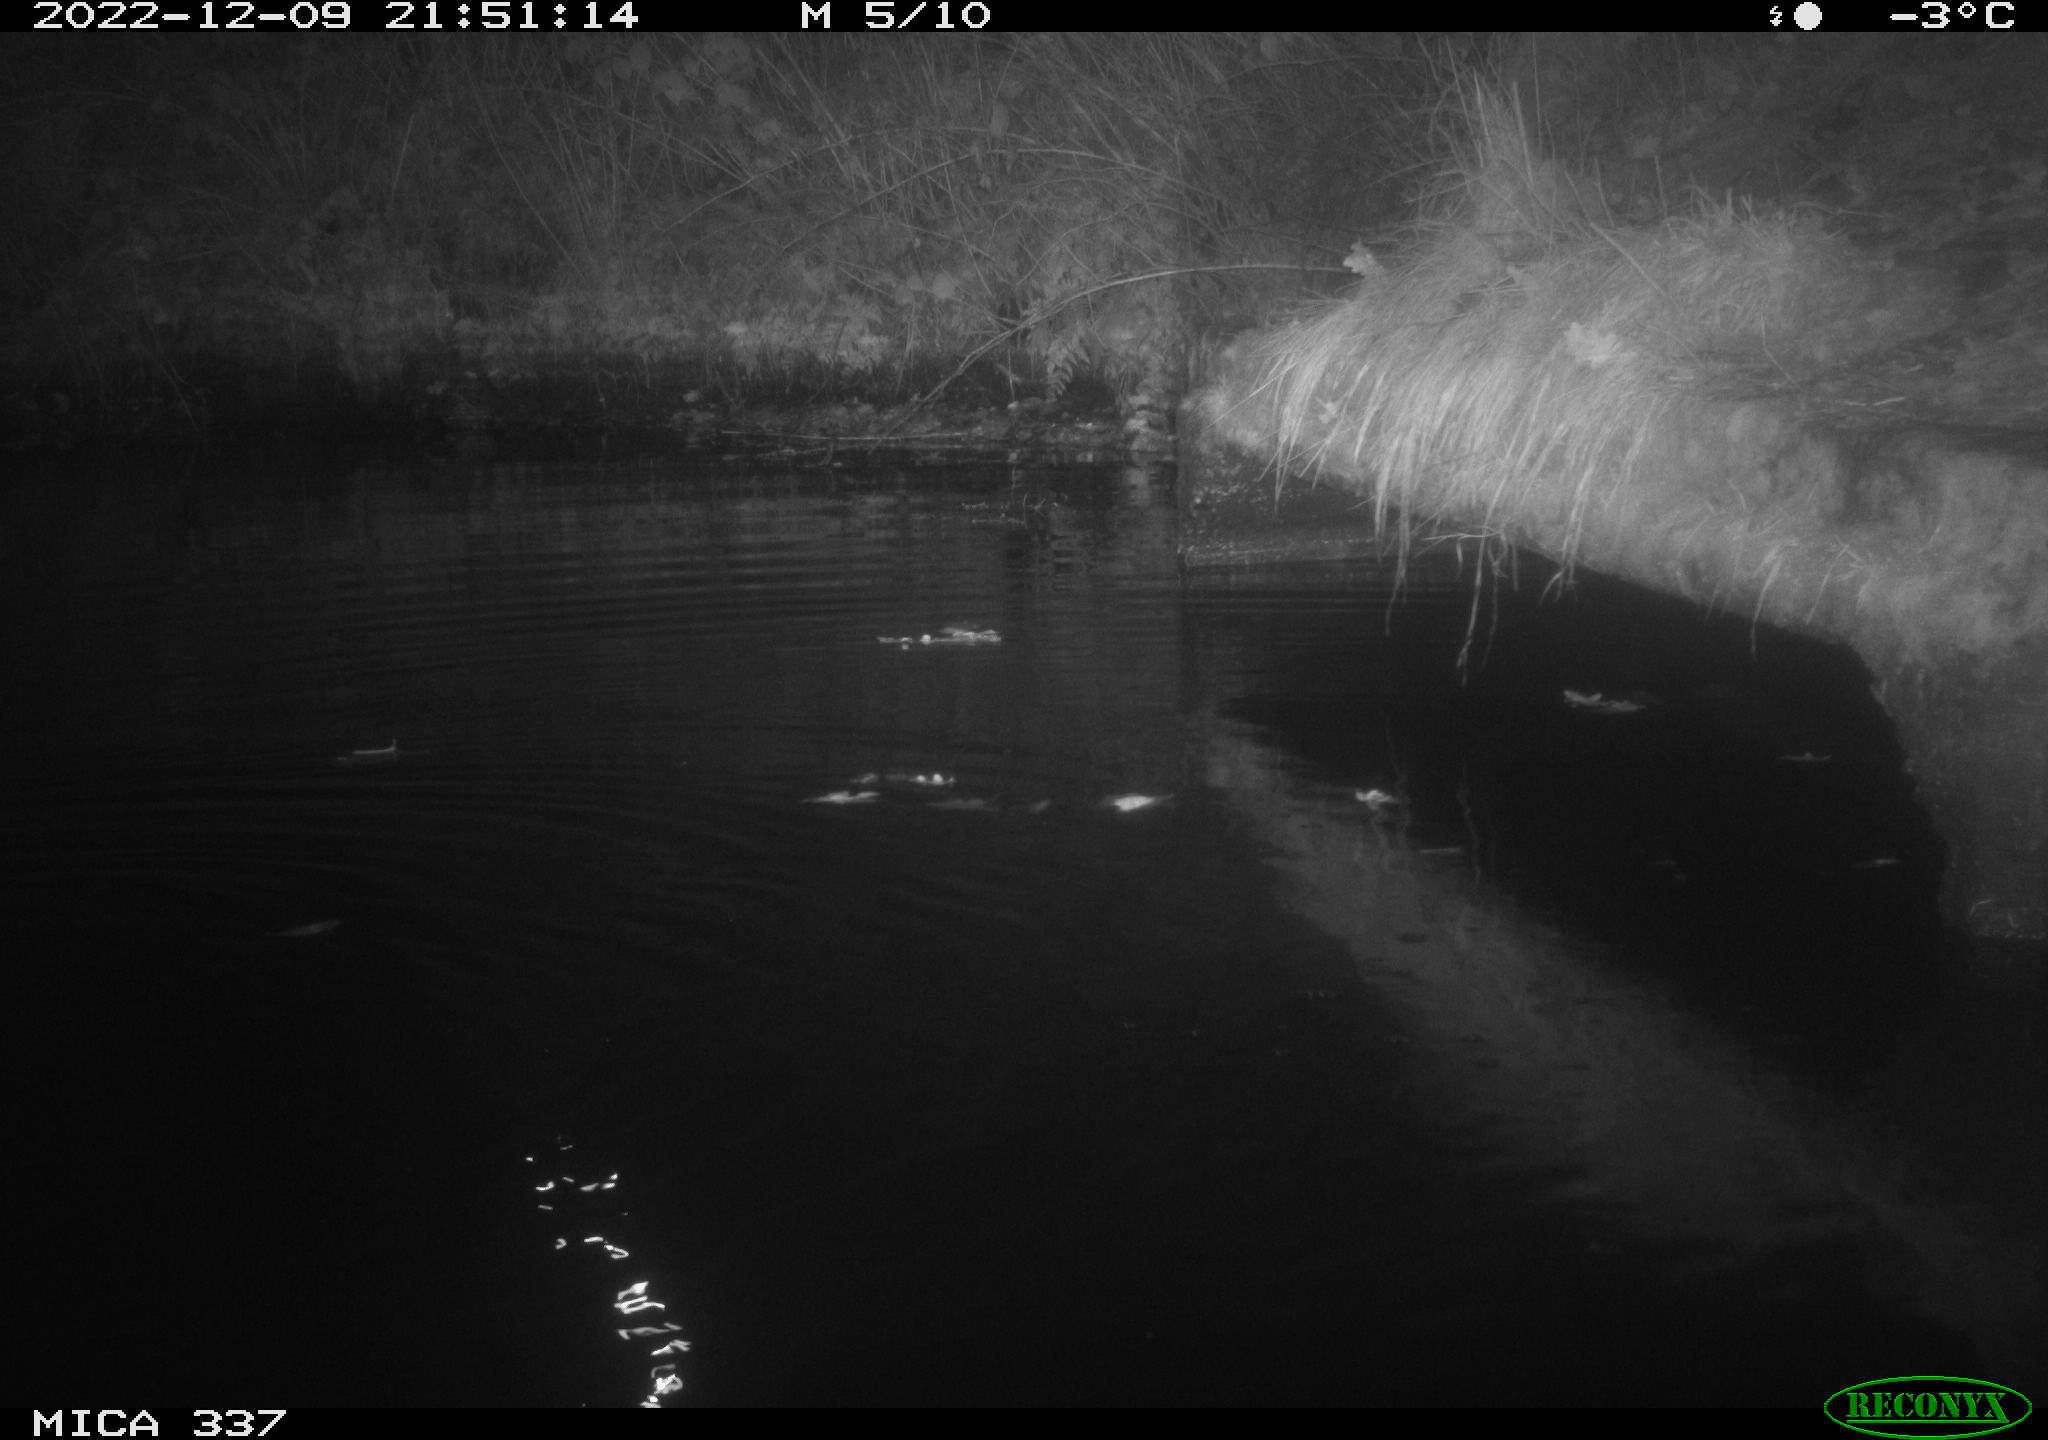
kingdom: Animalia
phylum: Chordata
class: Aves
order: Anseriformes
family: Anatidae
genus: Anas
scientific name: Anas
